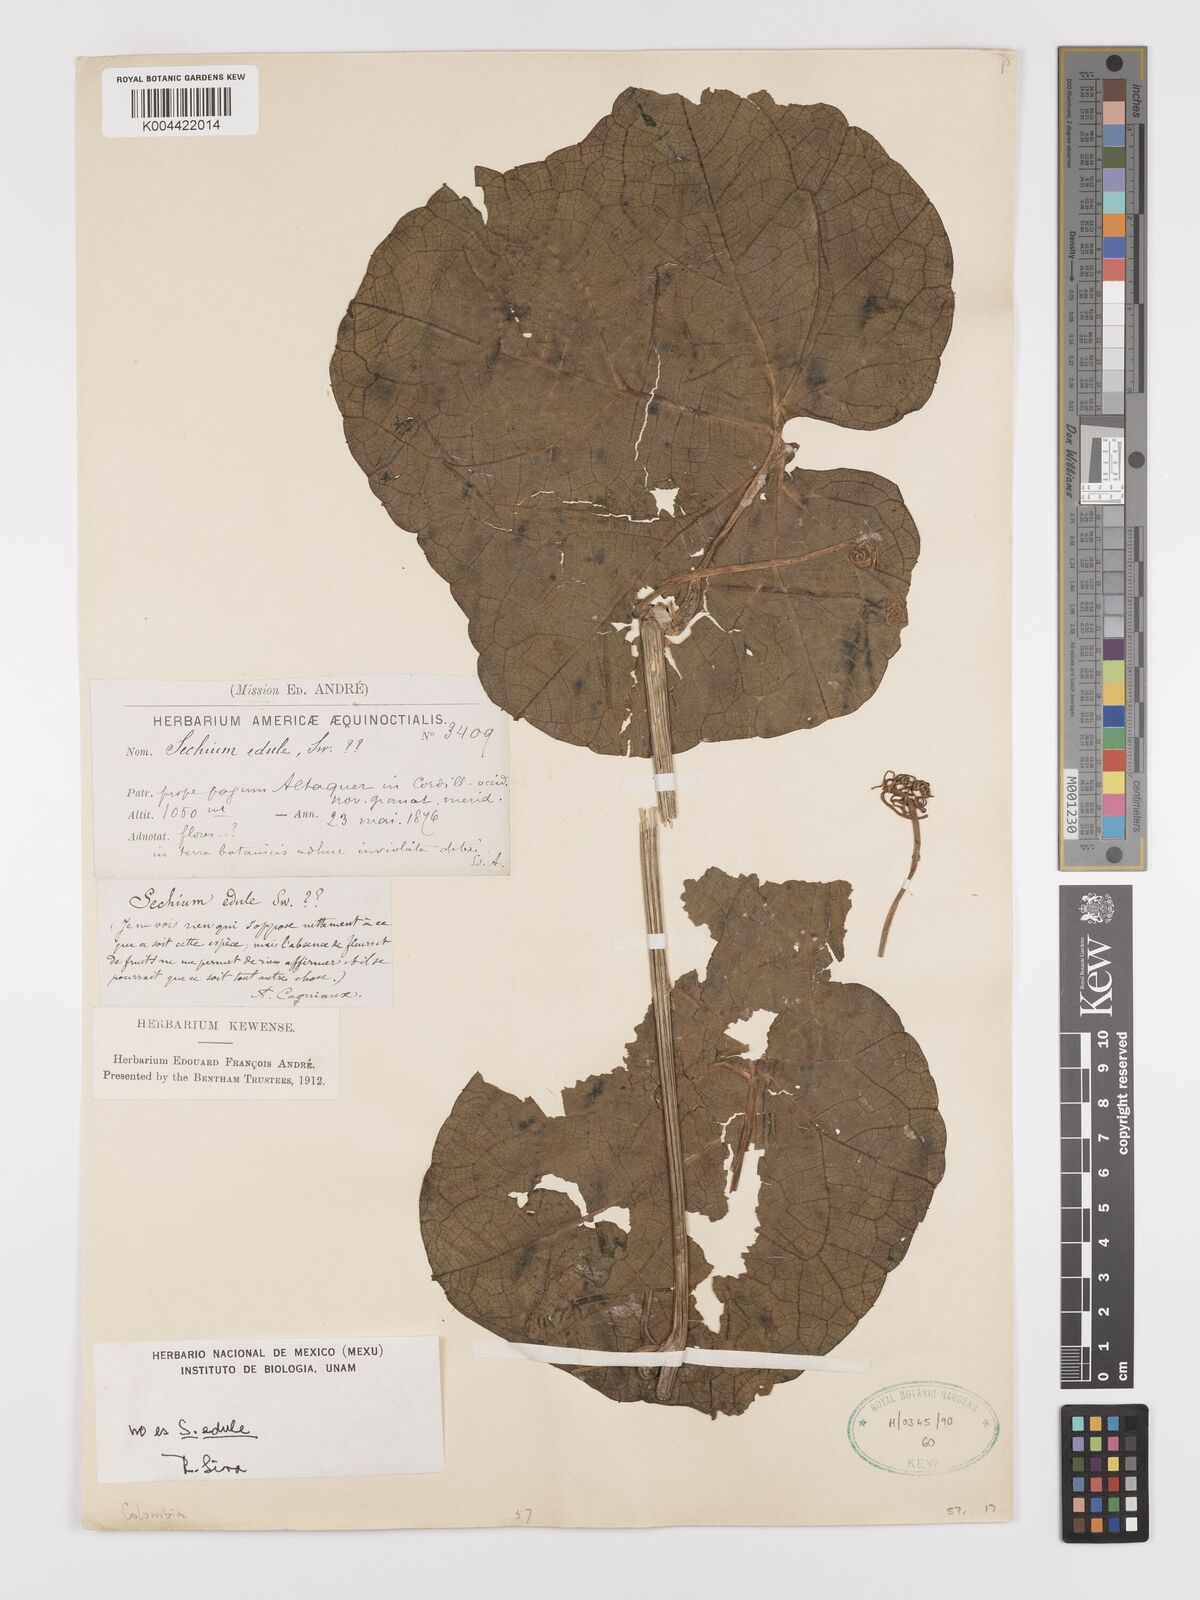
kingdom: Plantae
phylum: Tracheophyta
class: Magnoliopsida
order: Cucurbitales
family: Cucurbitaceae
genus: Sechium
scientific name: Sechium edule
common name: Chayote
